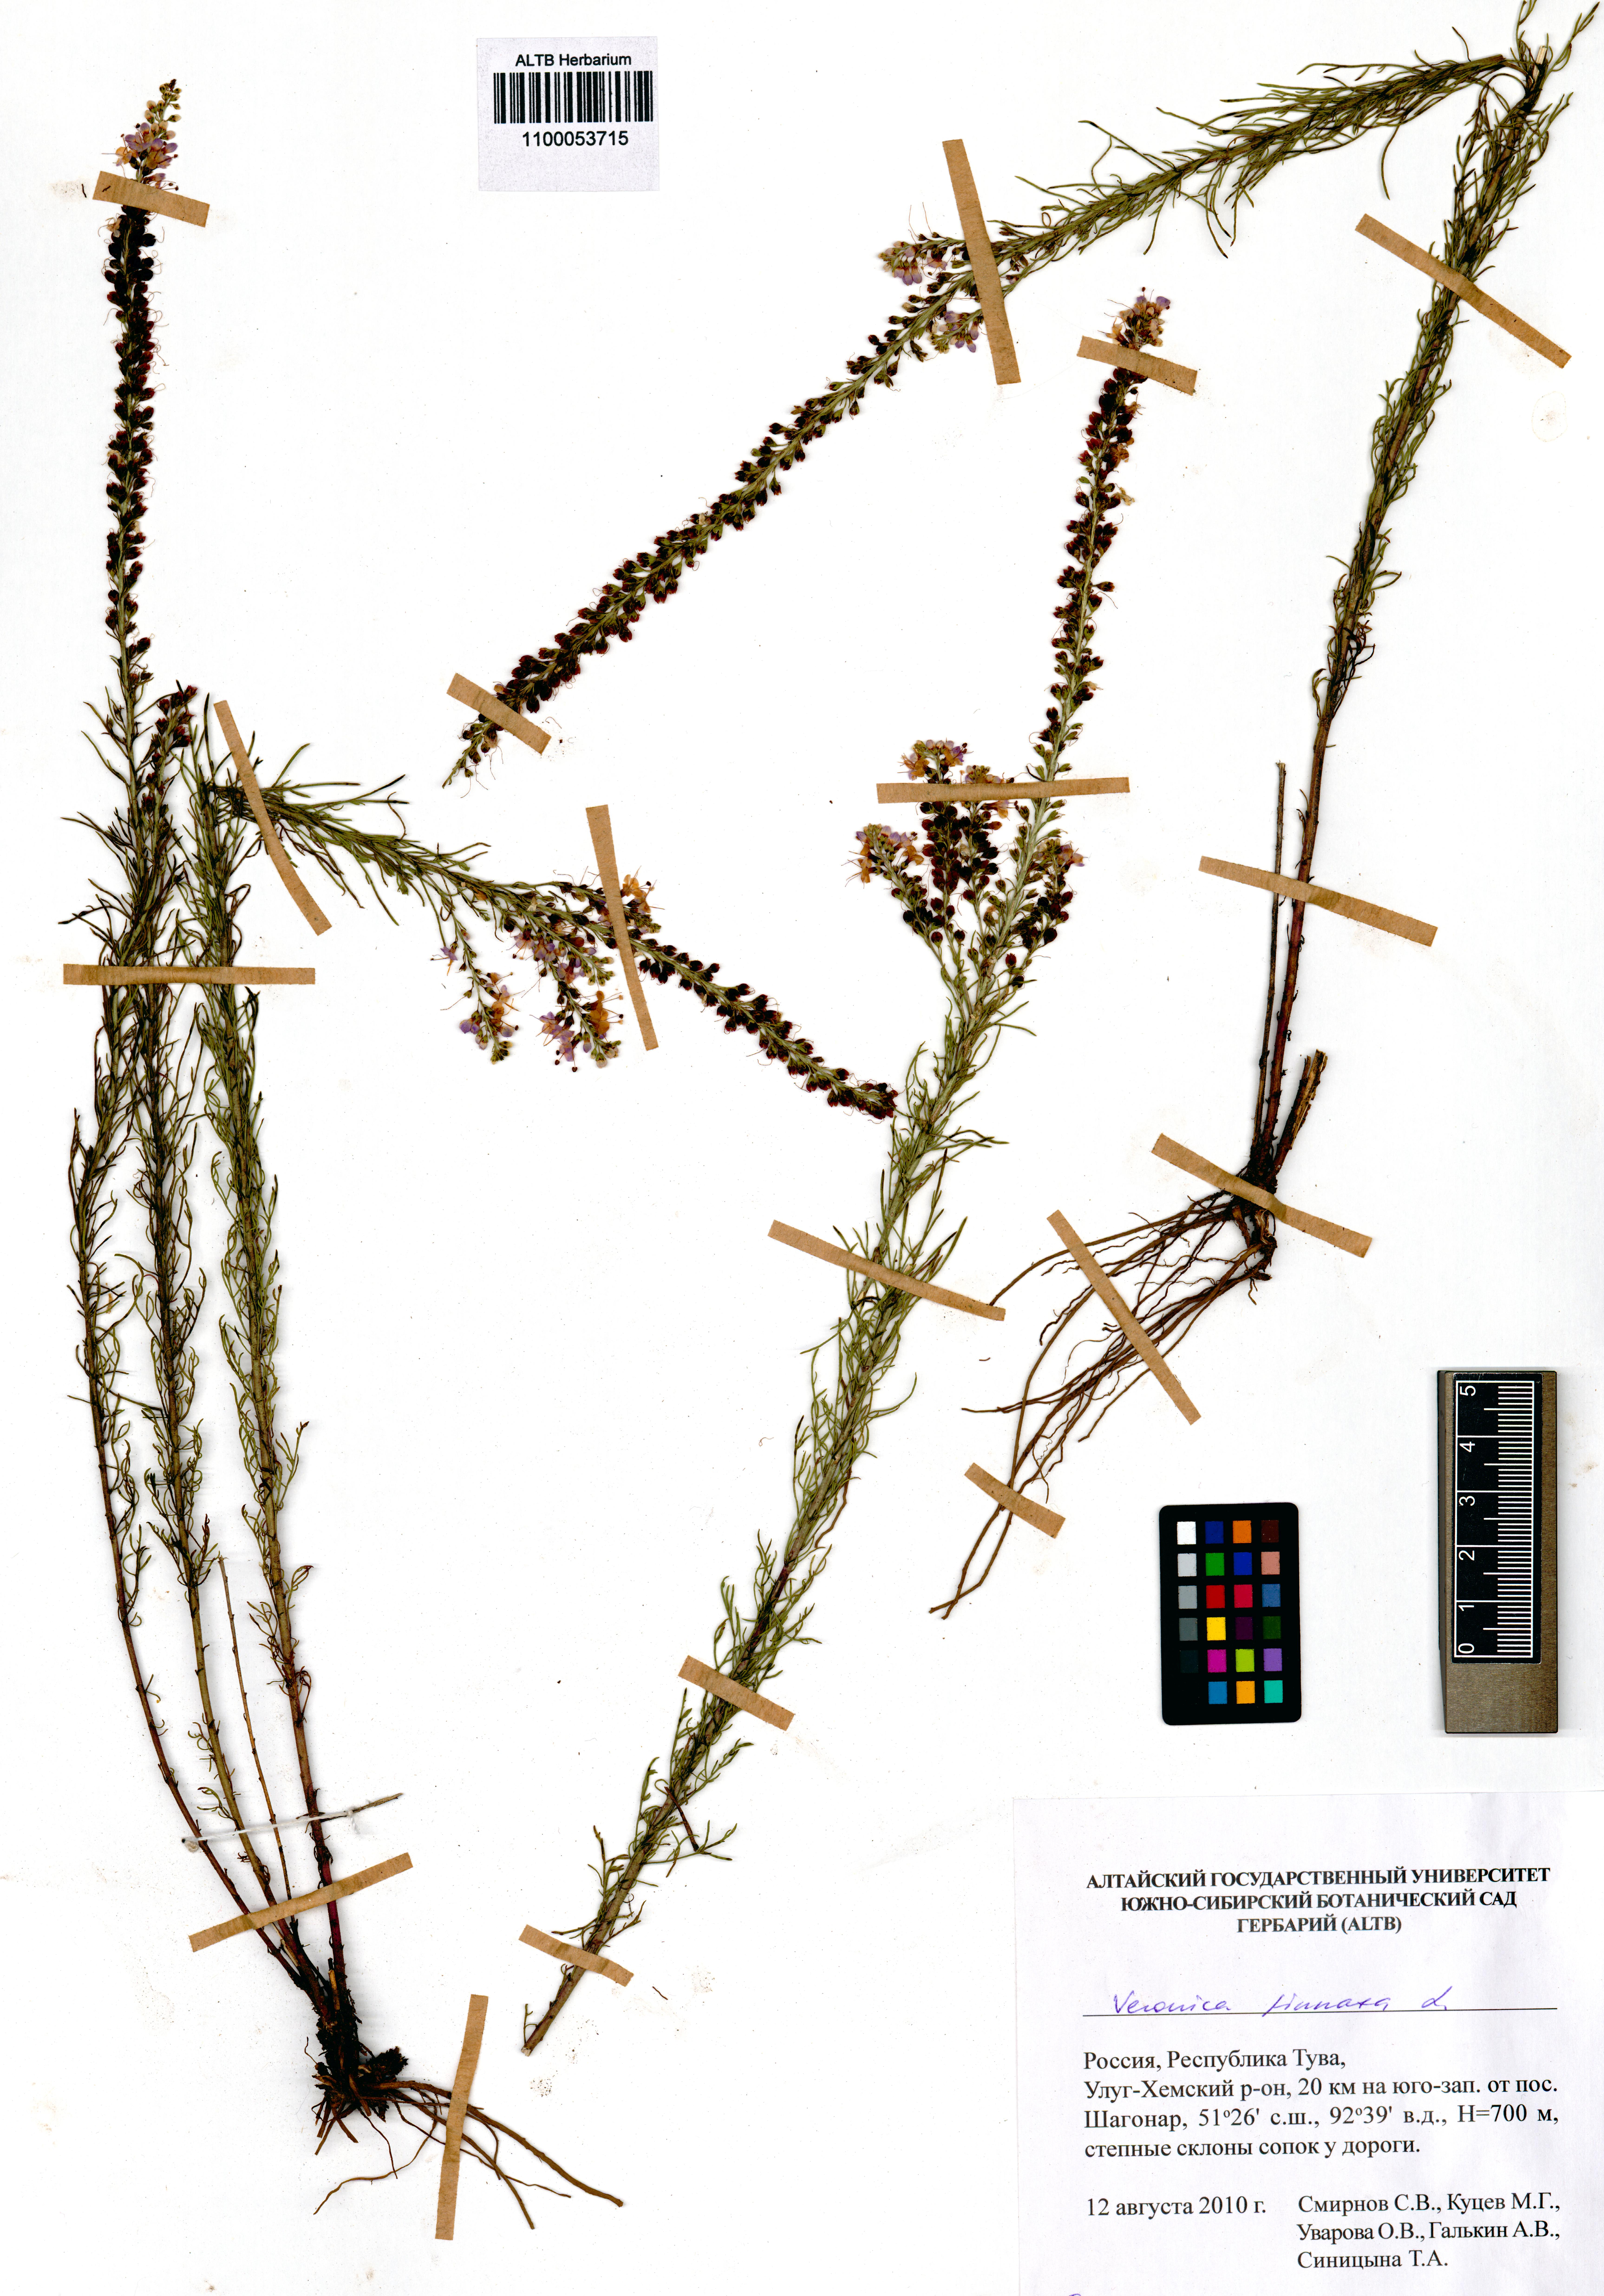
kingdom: Plantae
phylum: Tracheophyta
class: Magnoliopsida
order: Lamiales
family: Plantaginaceae
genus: Veronica
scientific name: Veronica pinnata
